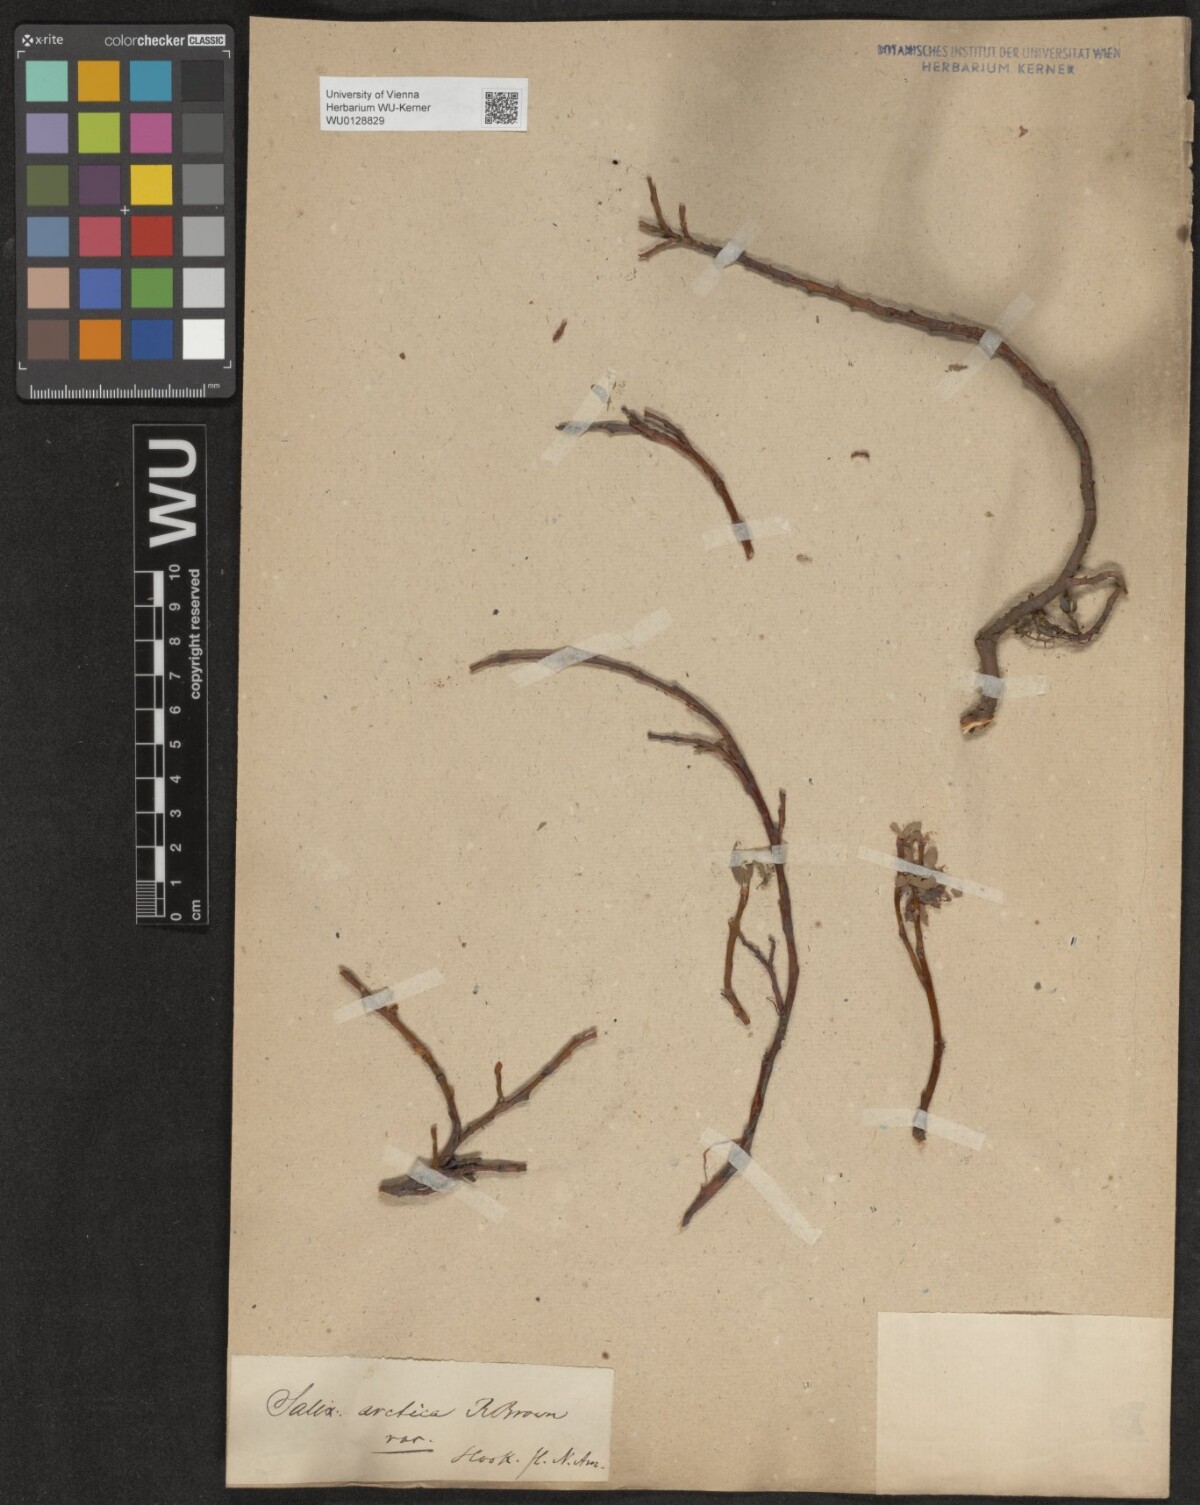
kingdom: Plantae
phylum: Tracheophyta
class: Magnoliopsida
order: Malpighiales
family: Salicaceae
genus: Salix
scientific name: Salix arctica
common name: Arctic willow
